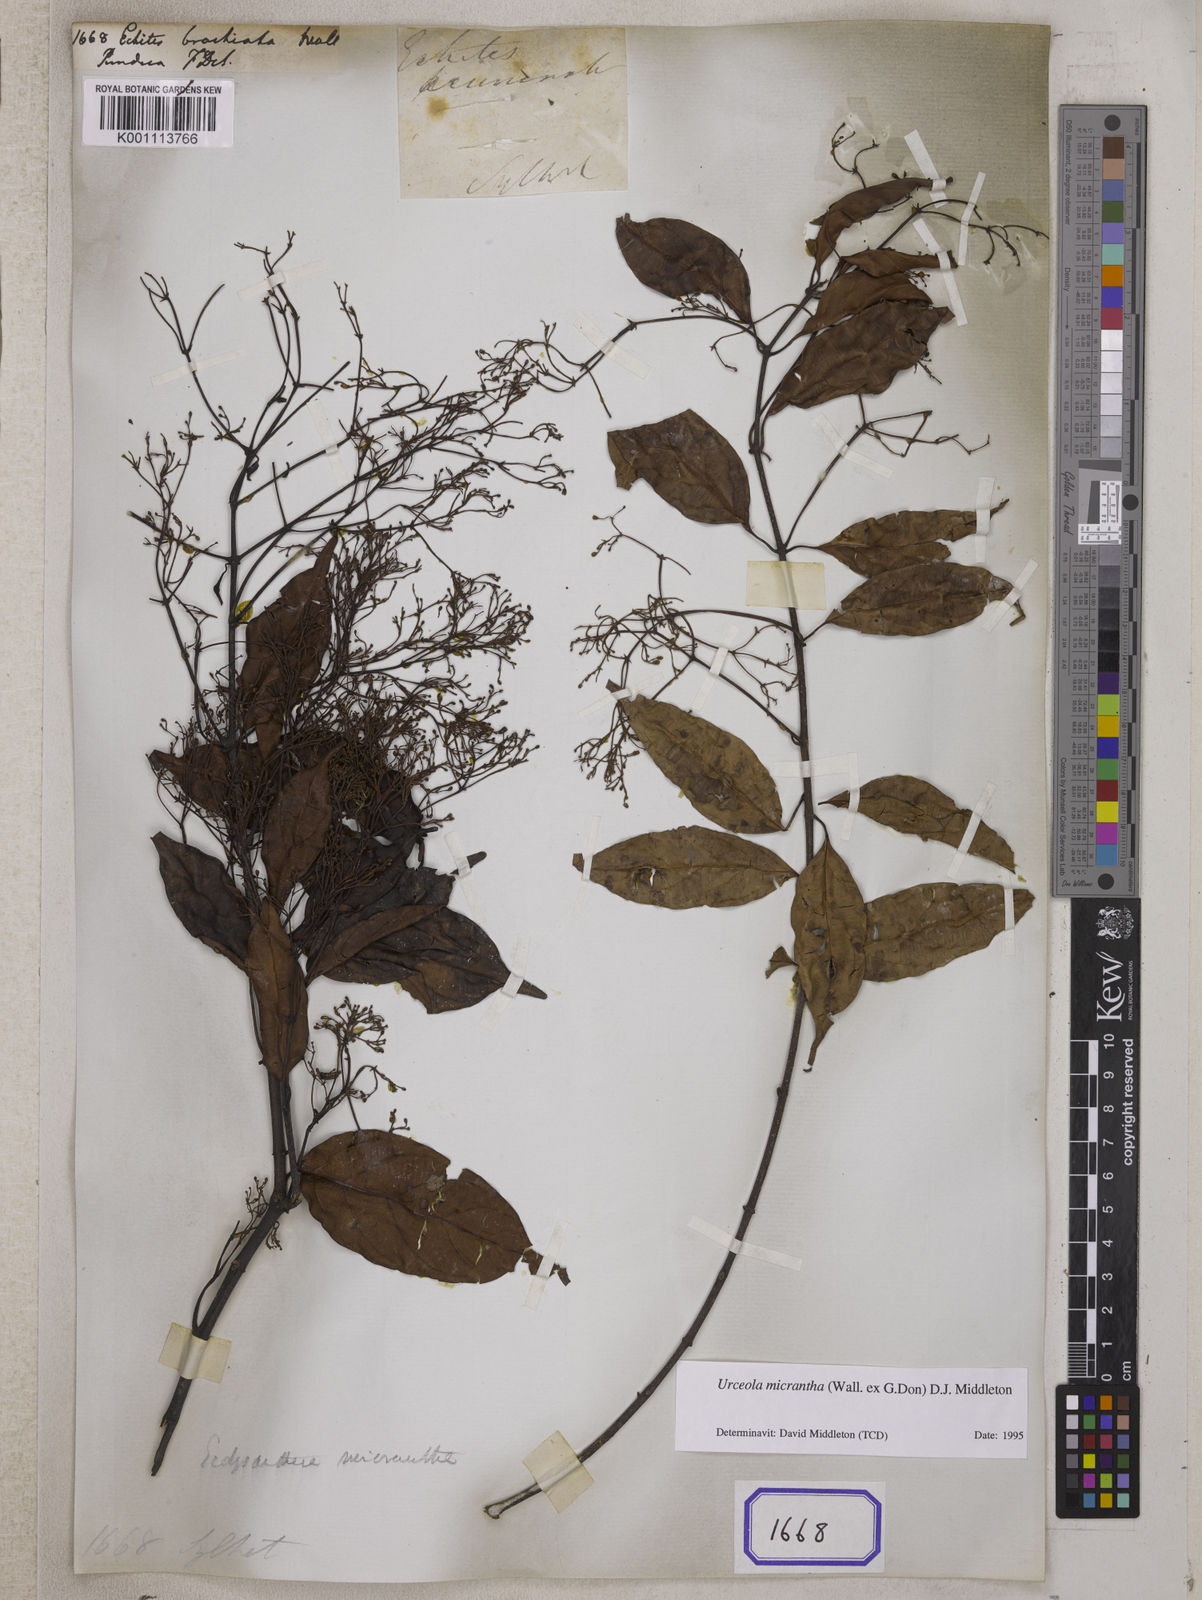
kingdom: Plantae
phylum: Tracheophyta
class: Magnoliopsida
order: Gentianales
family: Apocynaceae
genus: Urceola
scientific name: Urceola micrantha
